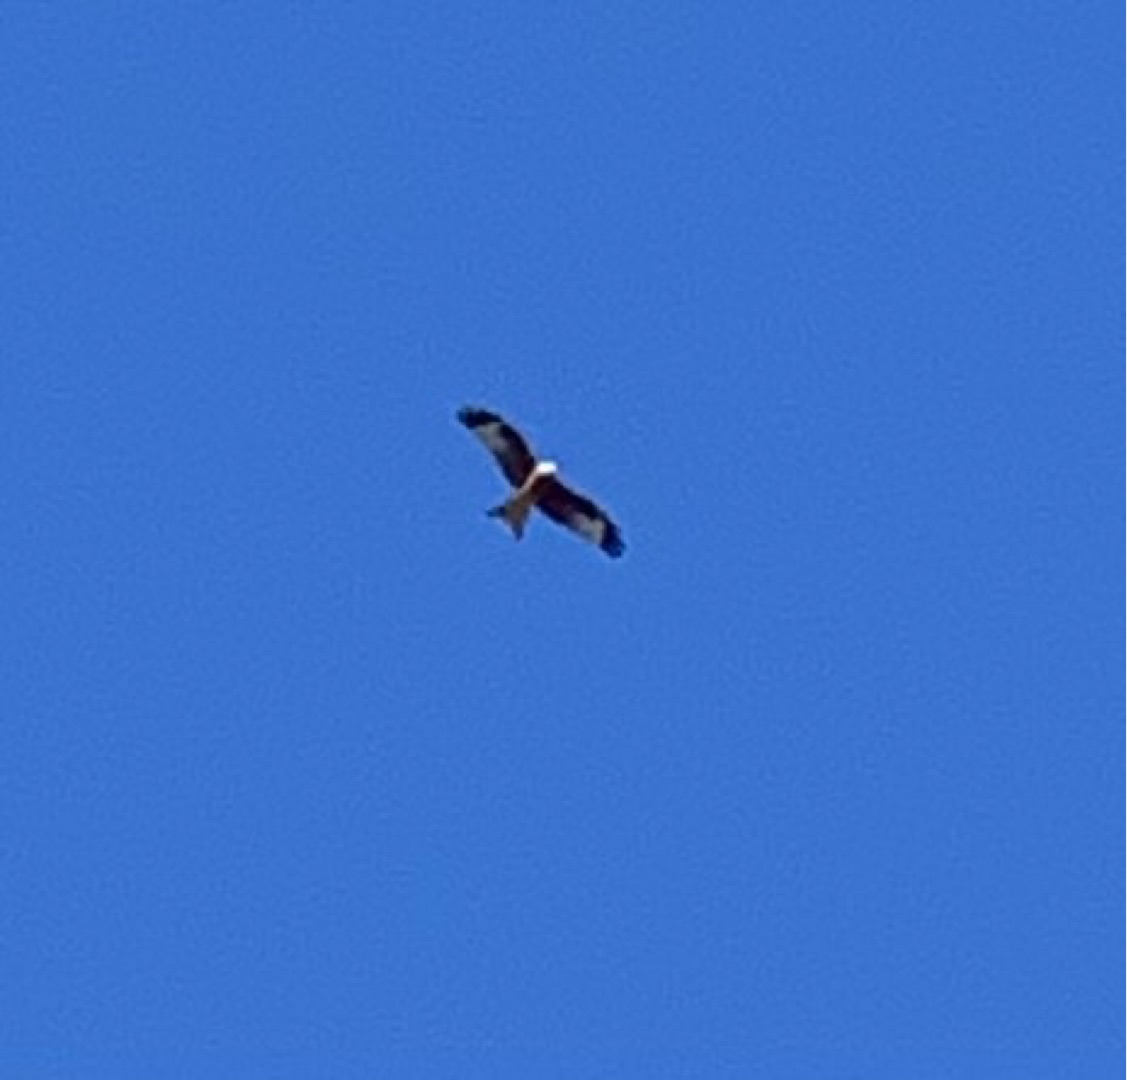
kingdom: Animalia
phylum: Chordata
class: Aves
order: Accipitriformes
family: Accipitridae
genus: Milvus
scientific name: Milvus milvus
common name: Rød glente
